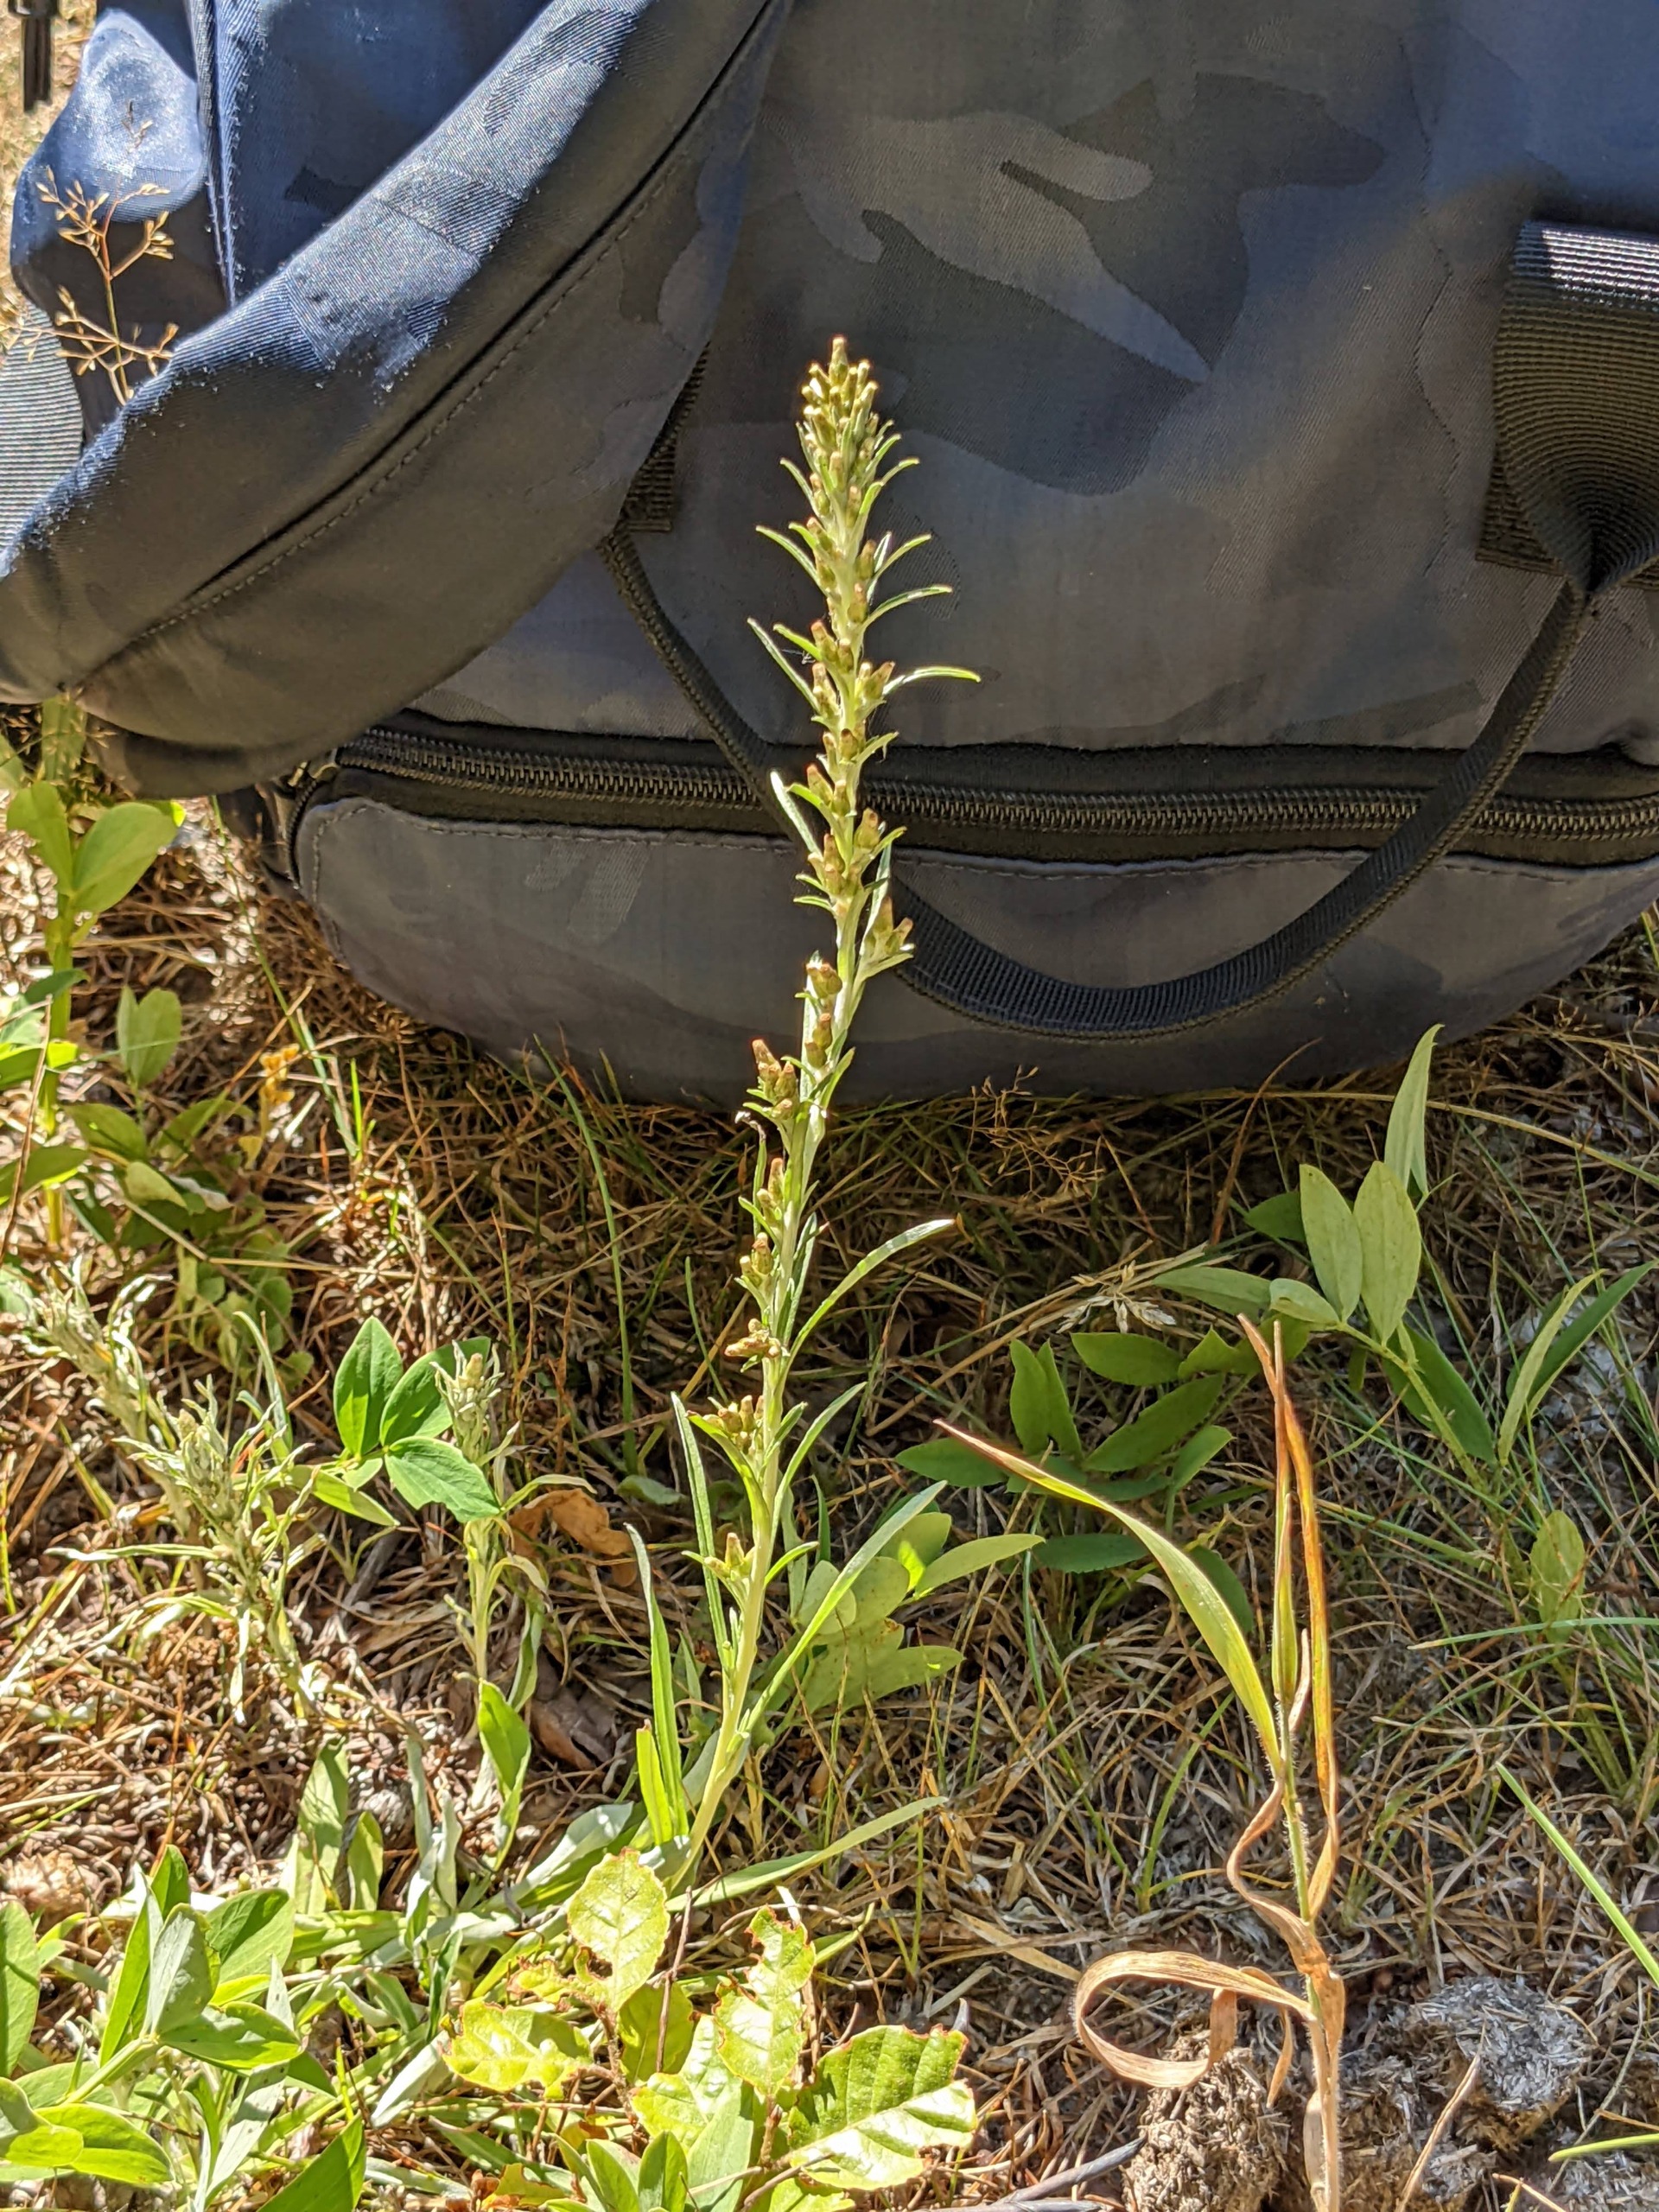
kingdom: Plantae
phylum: Tracheophyta
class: Magnoliopsida
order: Asterales
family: Asteraceae
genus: Omalotheca
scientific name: Omalotheca sylvatica
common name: Rank evighedsblomst
